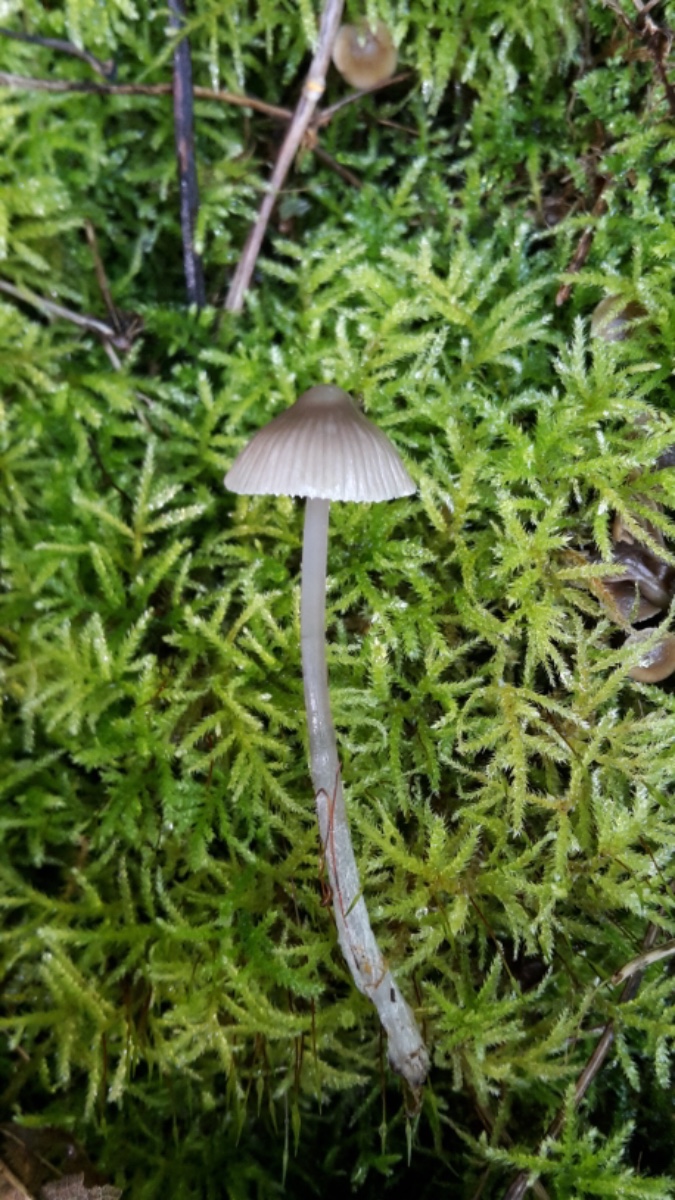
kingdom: Fungi
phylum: Basidiomycota
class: Agaricomycetes
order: Agaricales
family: Mycenaceae
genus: Mycena
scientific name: Mycena
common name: huesvamp
